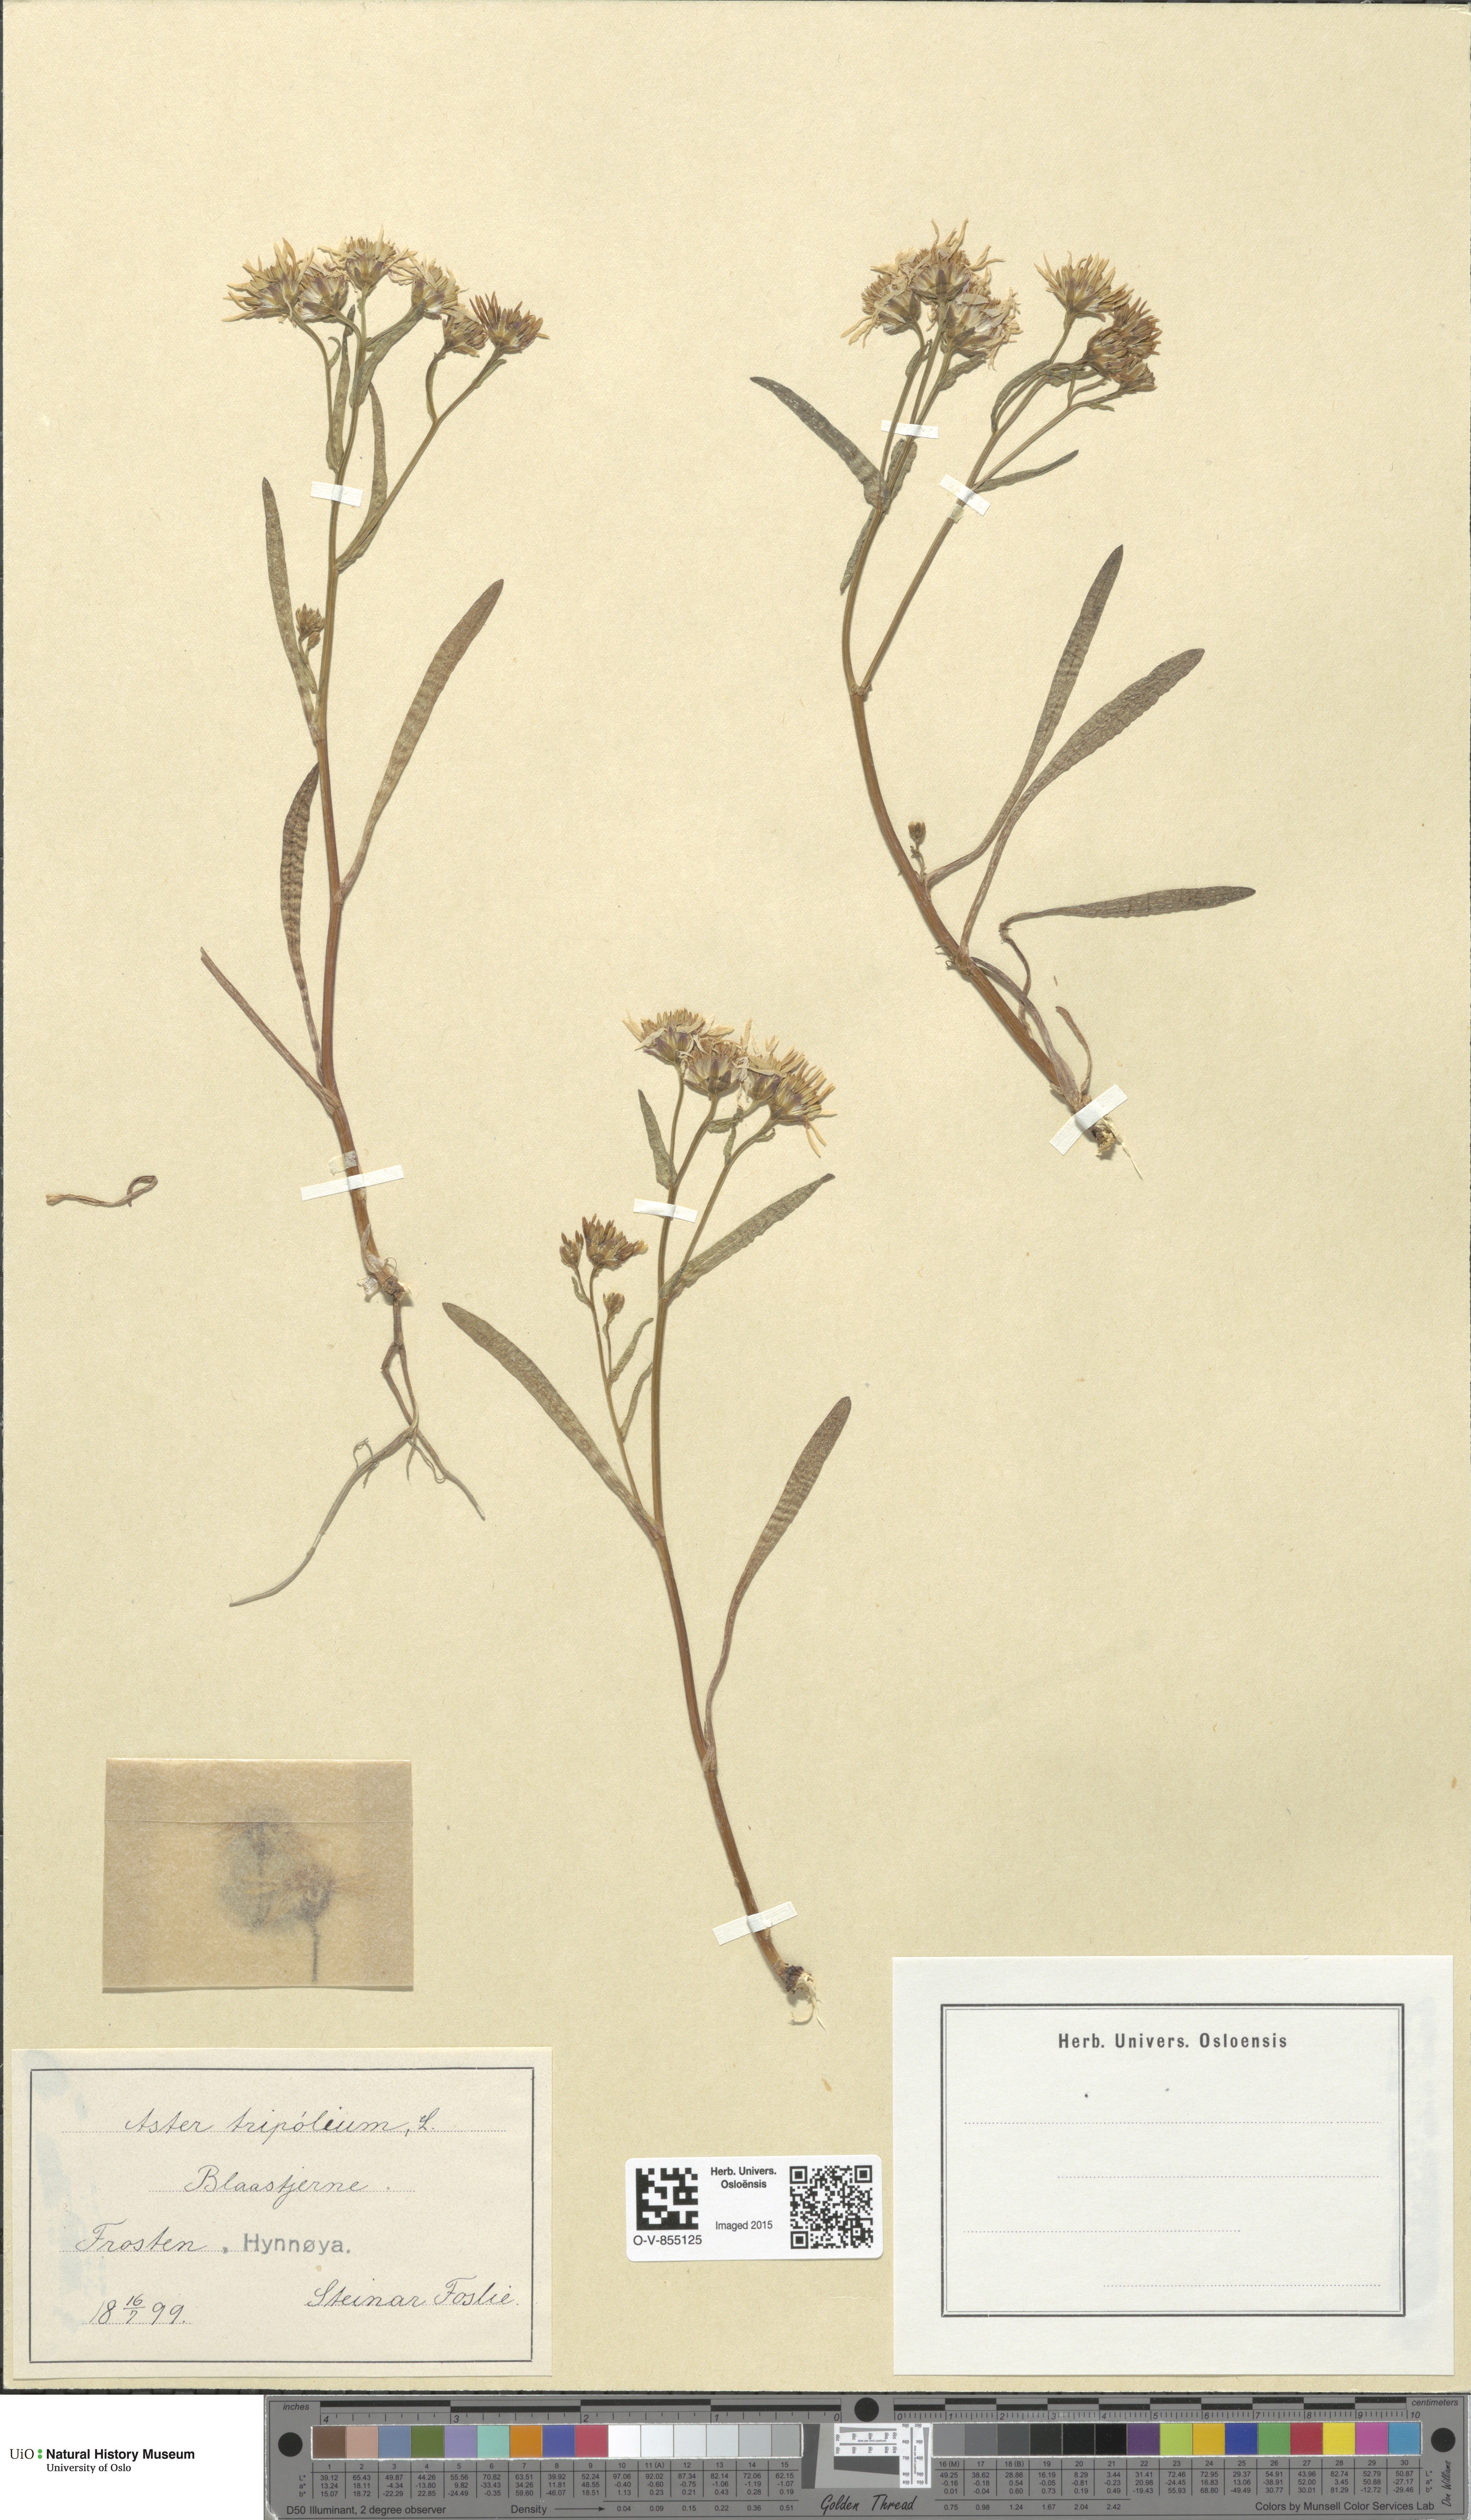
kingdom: Plantae
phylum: Tracheophyta
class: Magnoliopsida
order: Asterales
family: Asteraceae
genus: Tripolium
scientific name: Tripolium pannonicum
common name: Sea aster
